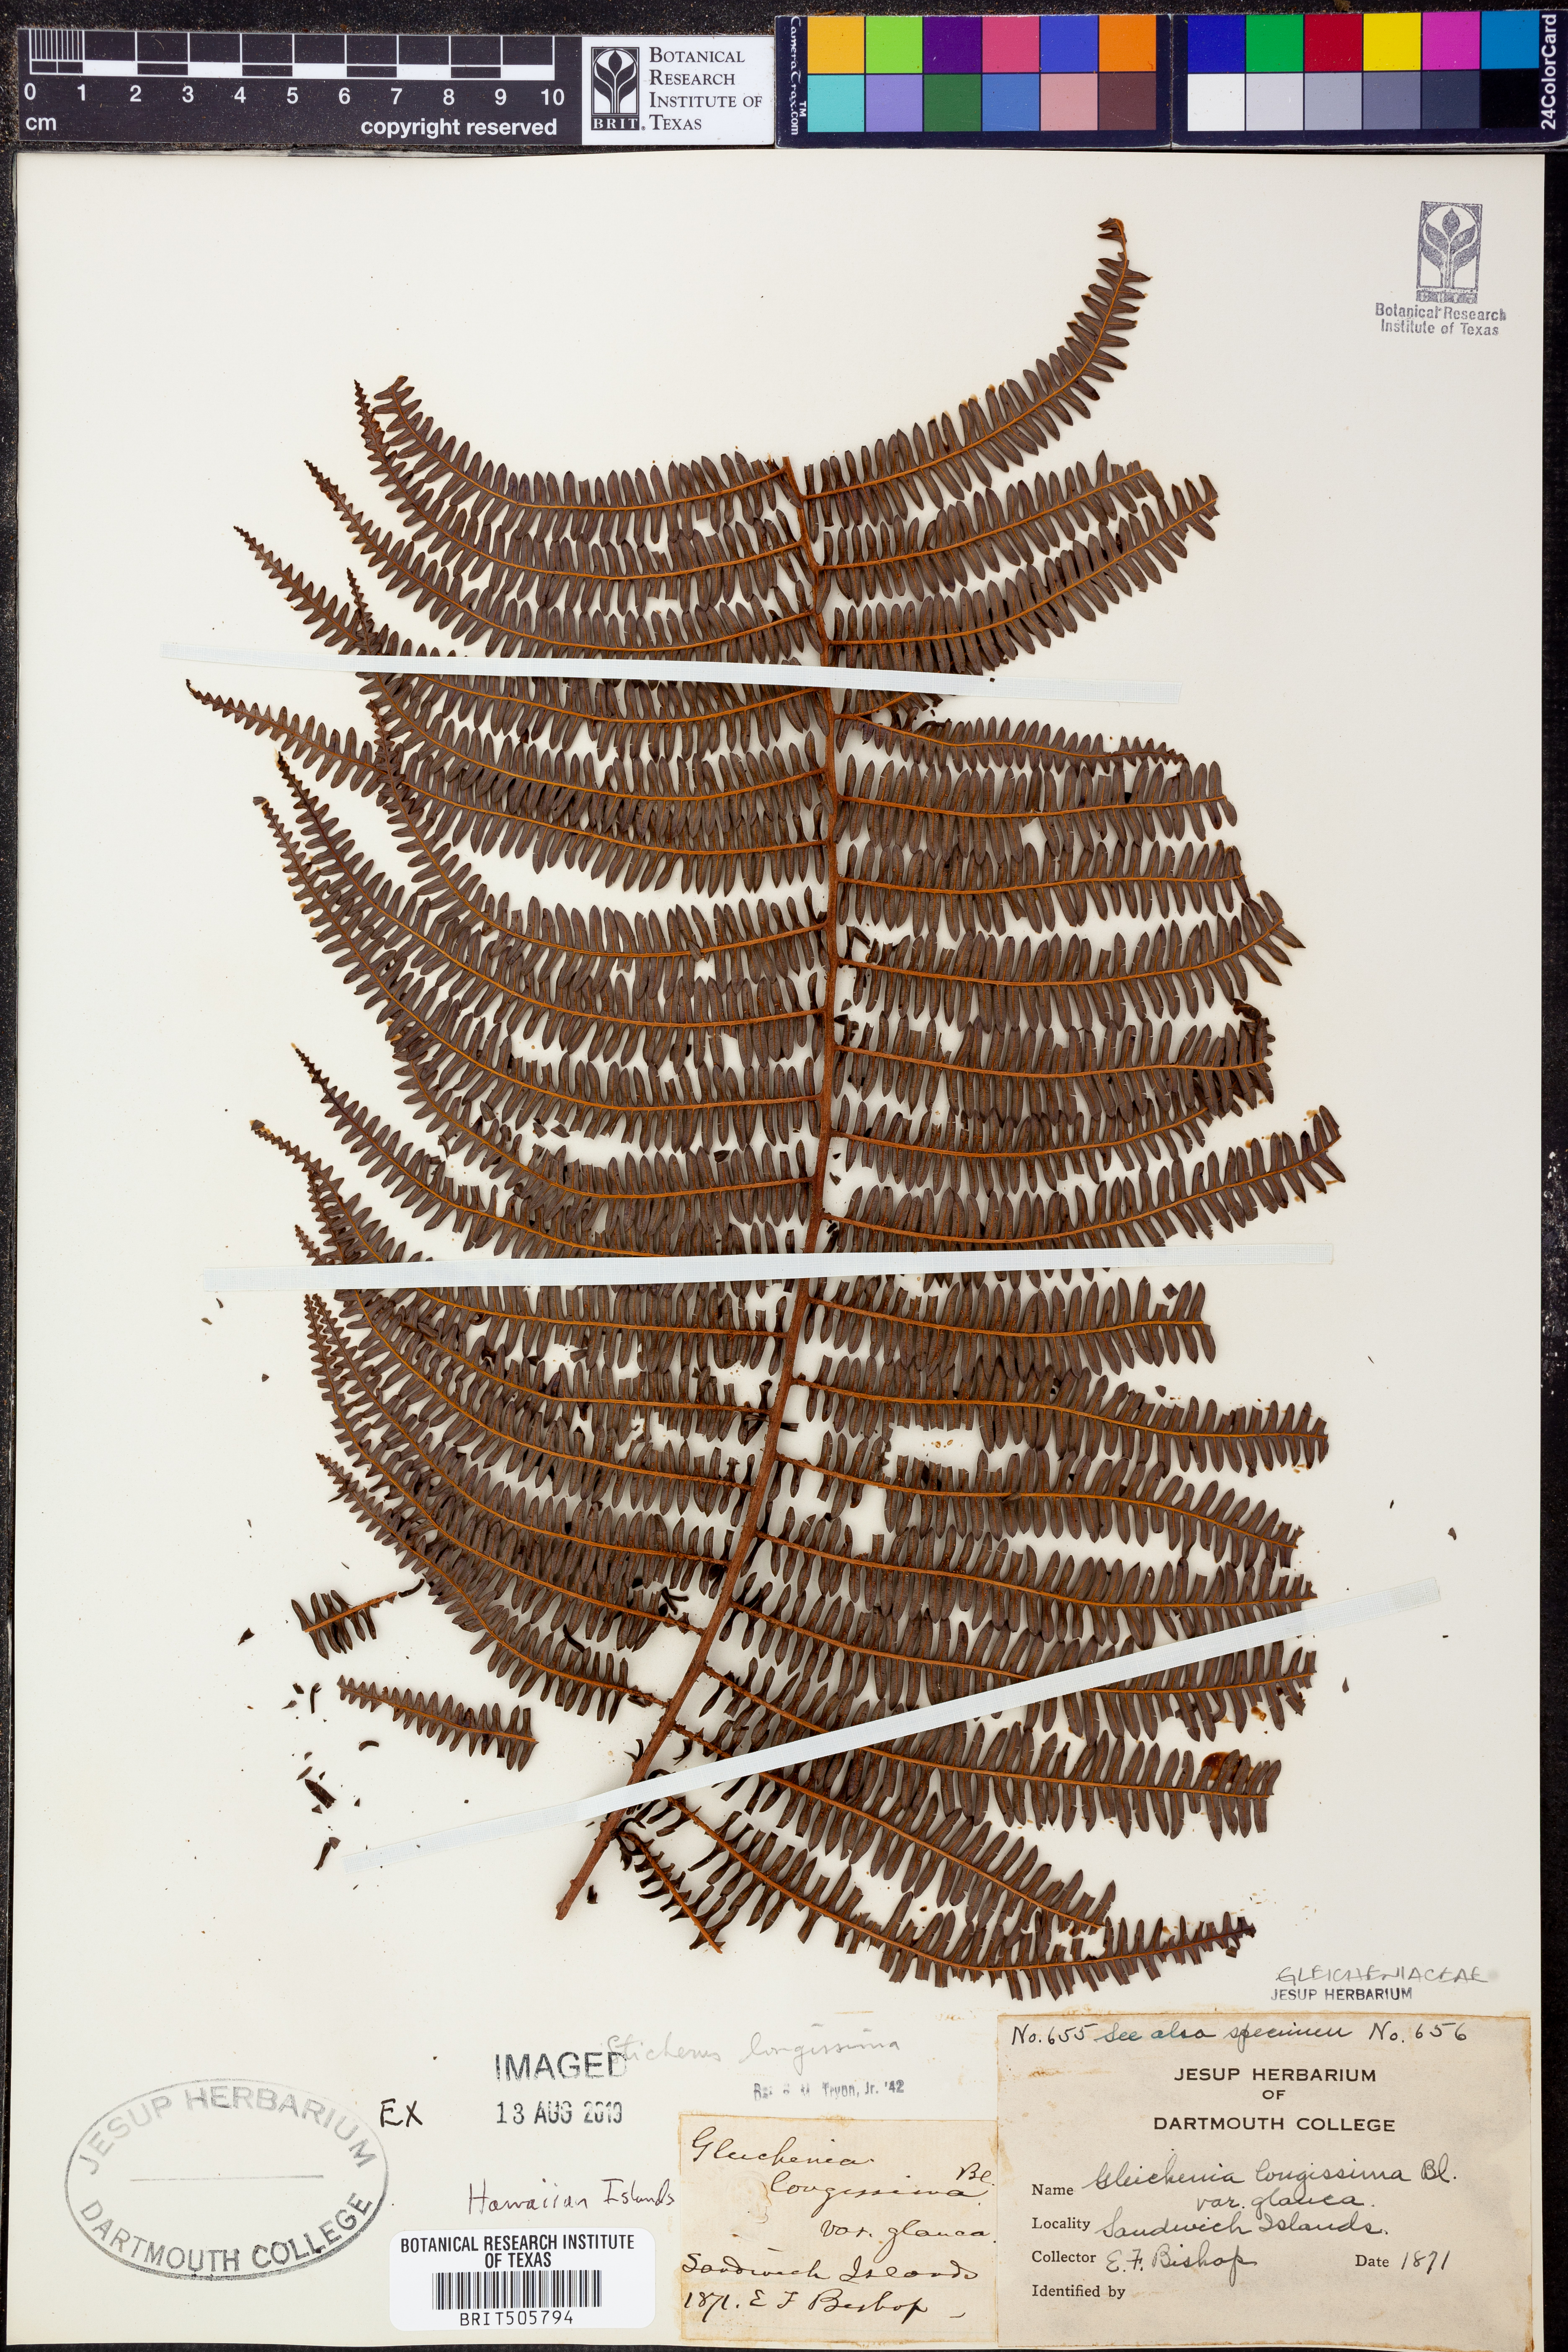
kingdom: Plantae
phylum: Tracheophyta
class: Polypodiopsida
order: Gleicheniales
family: Gleicheniaceae
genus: Sticherus
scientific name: Sticherus
